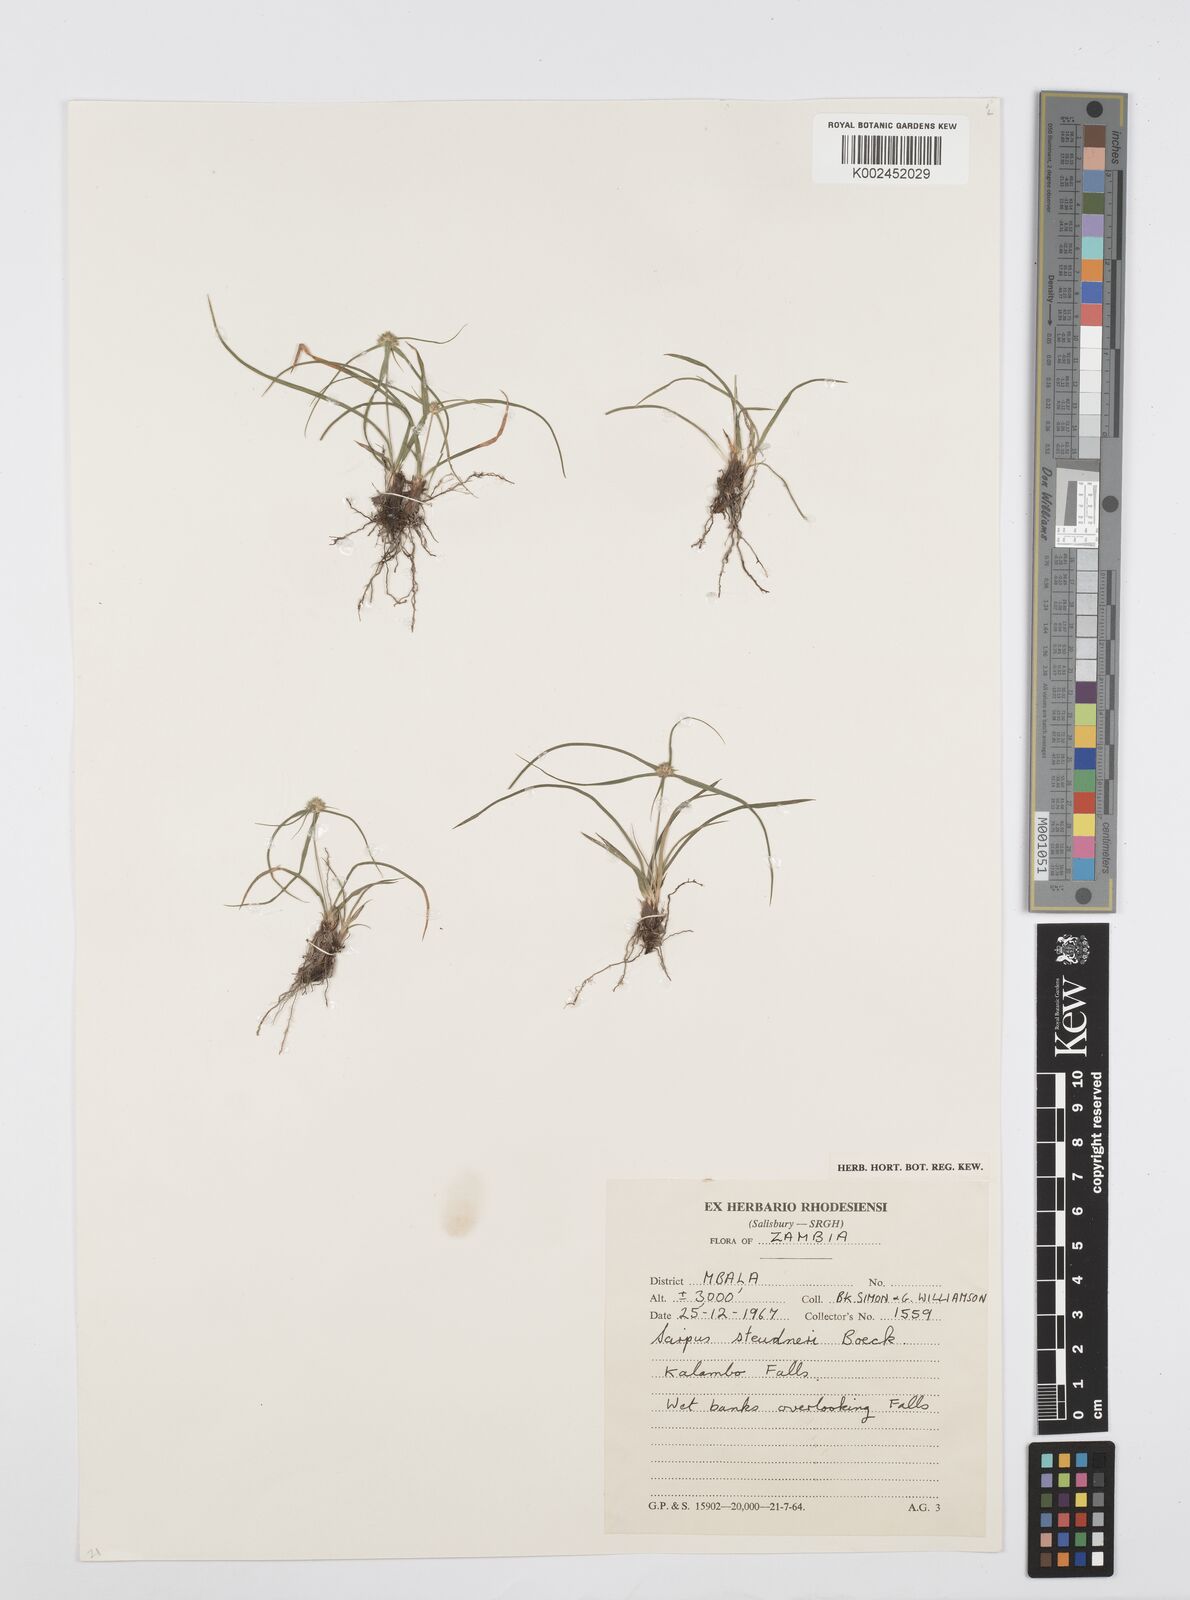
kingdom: Plantae
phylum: Tracheophyta
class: Liliopsida
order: Poales
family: Cyperaceae
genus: Cyperus
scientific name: Cyperus bulbosus
